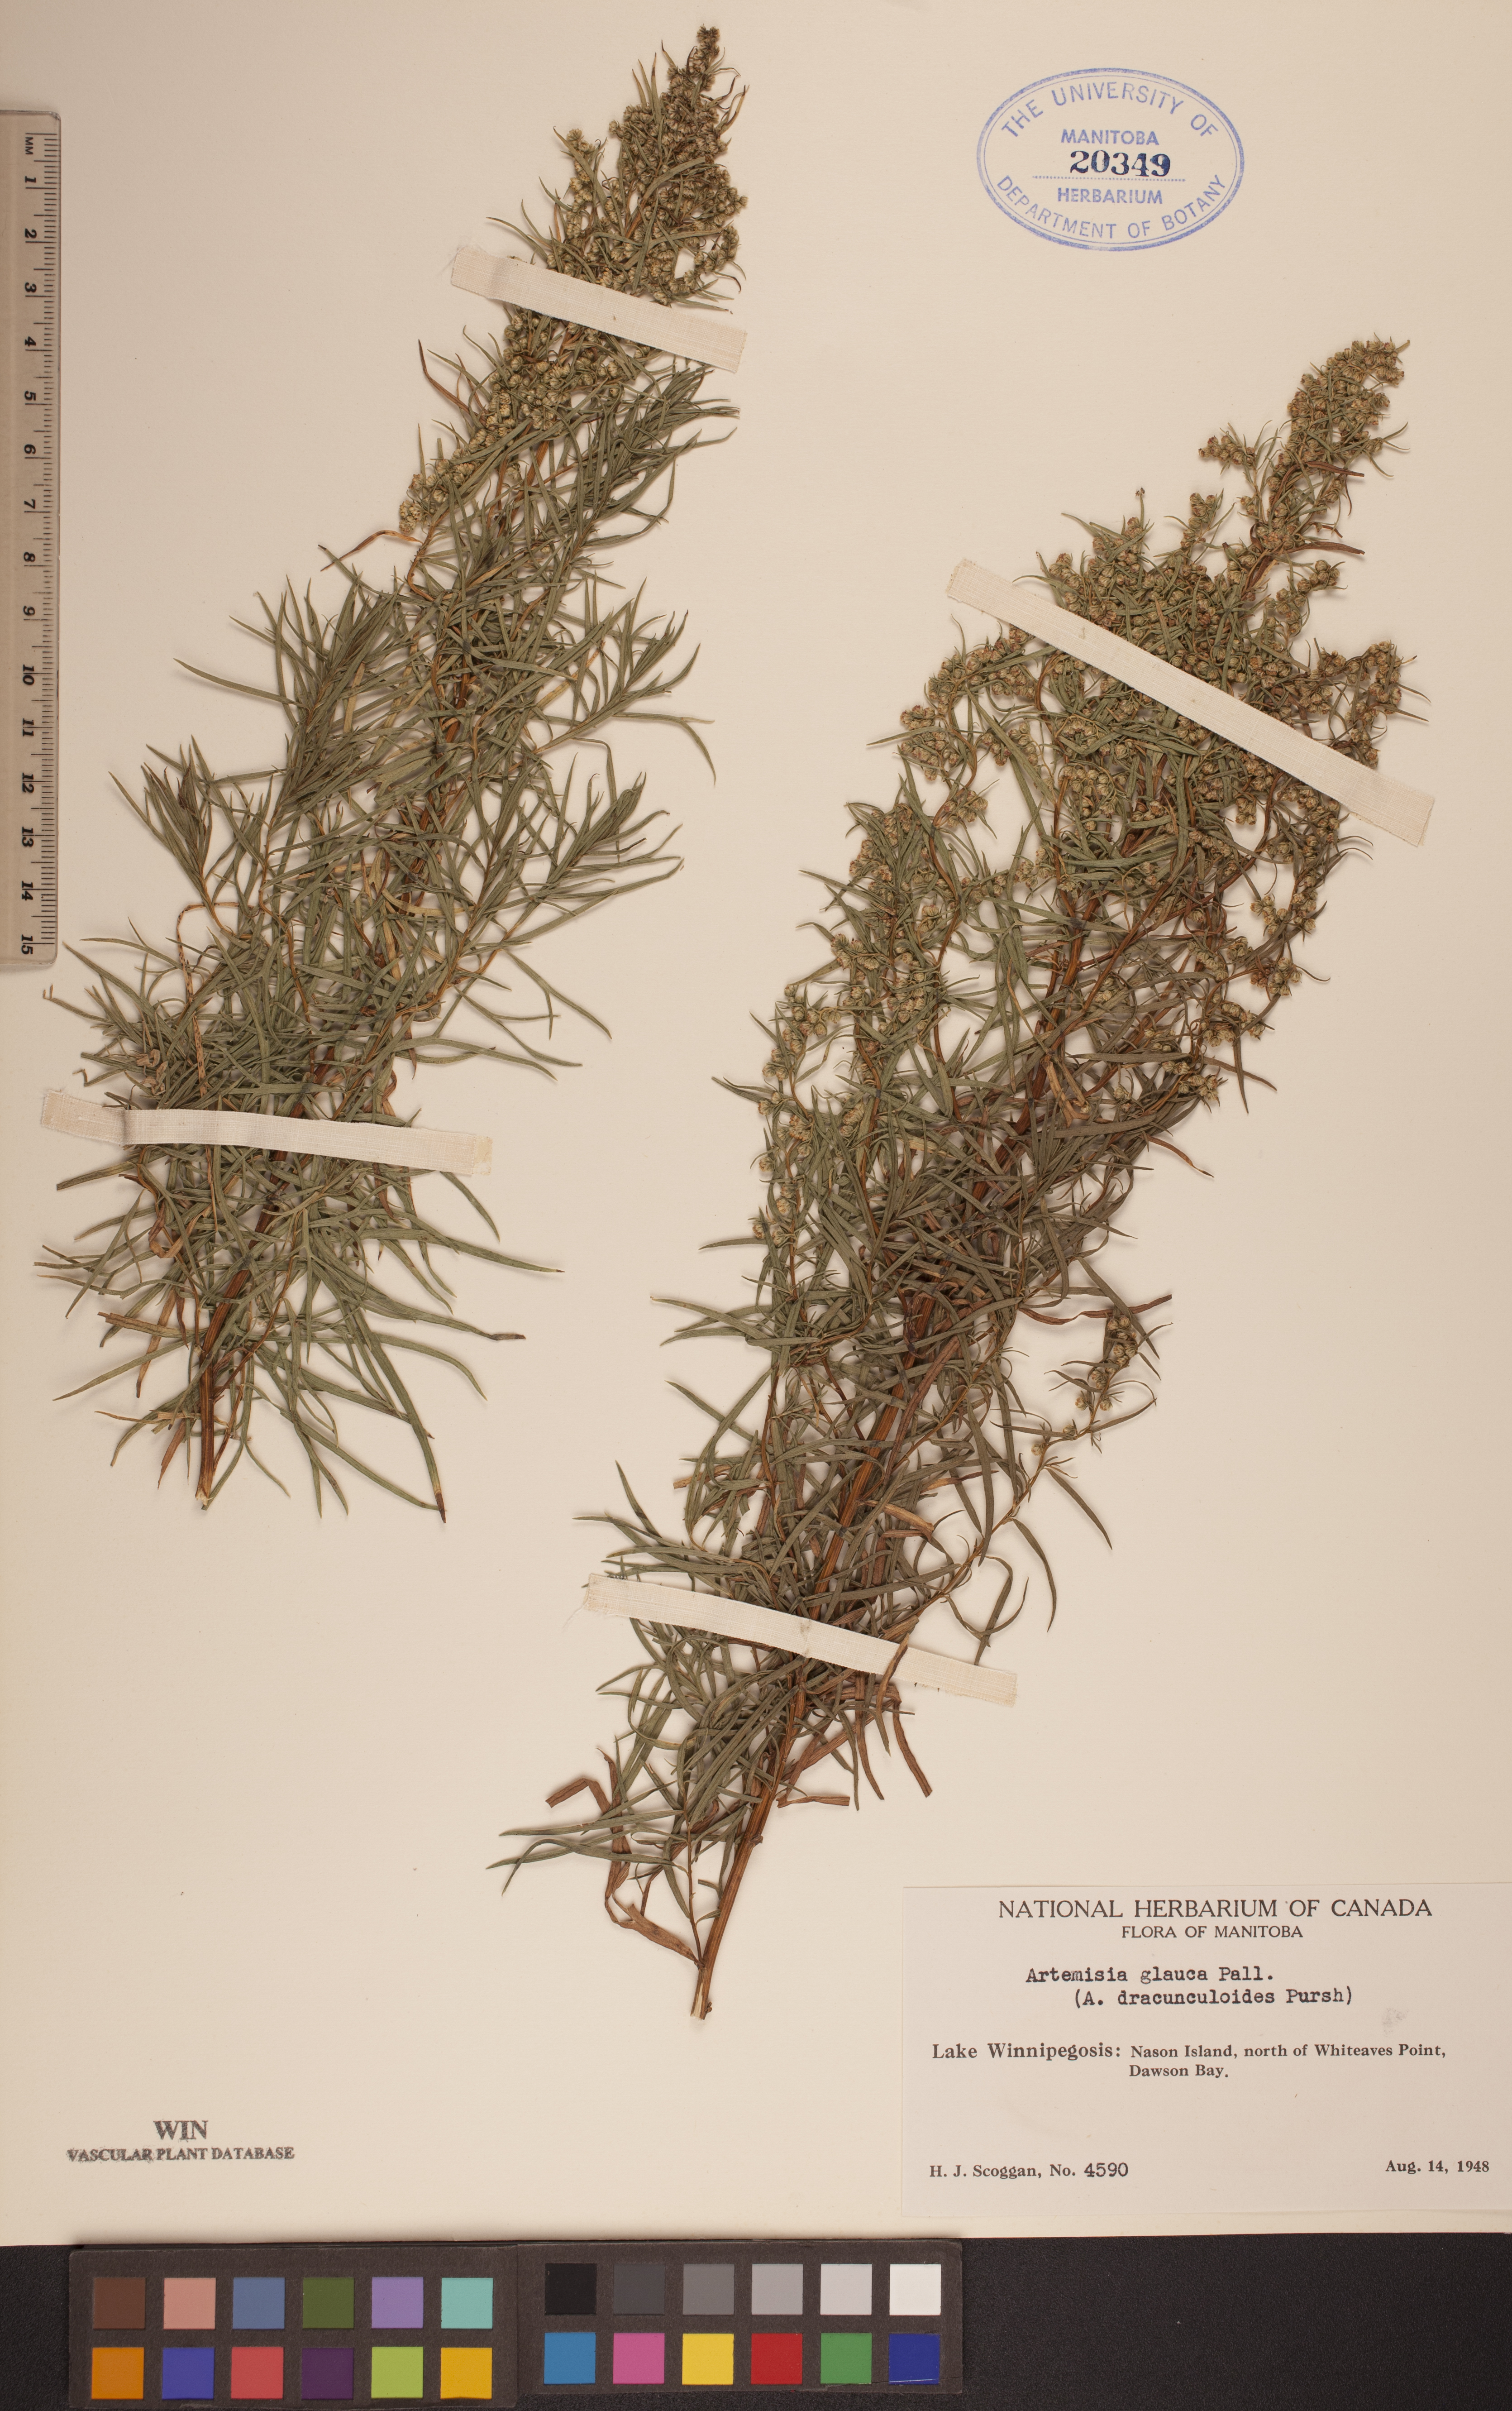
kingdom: Plantae
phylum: Tracheophyta
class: Magnoliopsida
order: Asterales
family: Asteraceae
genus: Artemisia
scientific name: Artemisia glauca
